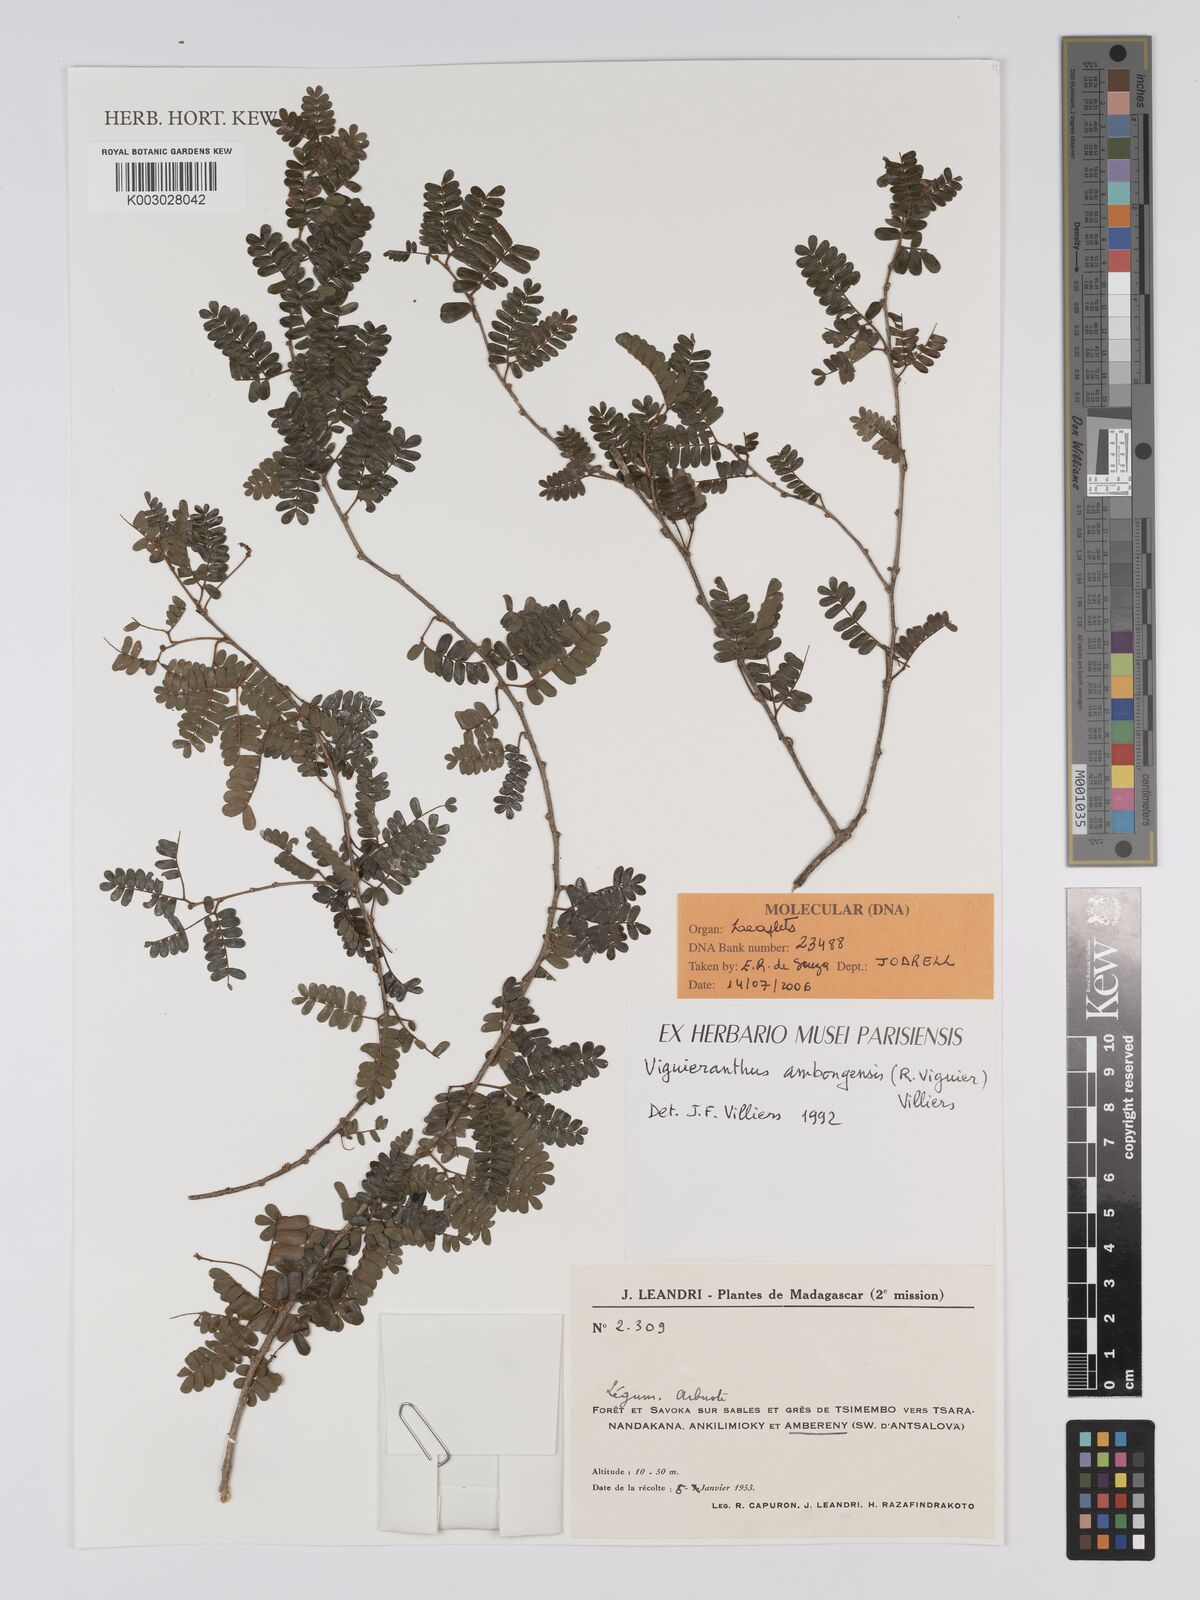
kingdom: Plantae
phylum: Tracheophyta
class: Magnoliopsida
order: Fabales
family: Fabaceae
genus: Viguieranthus
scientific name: Viguieranthus ambongensis
